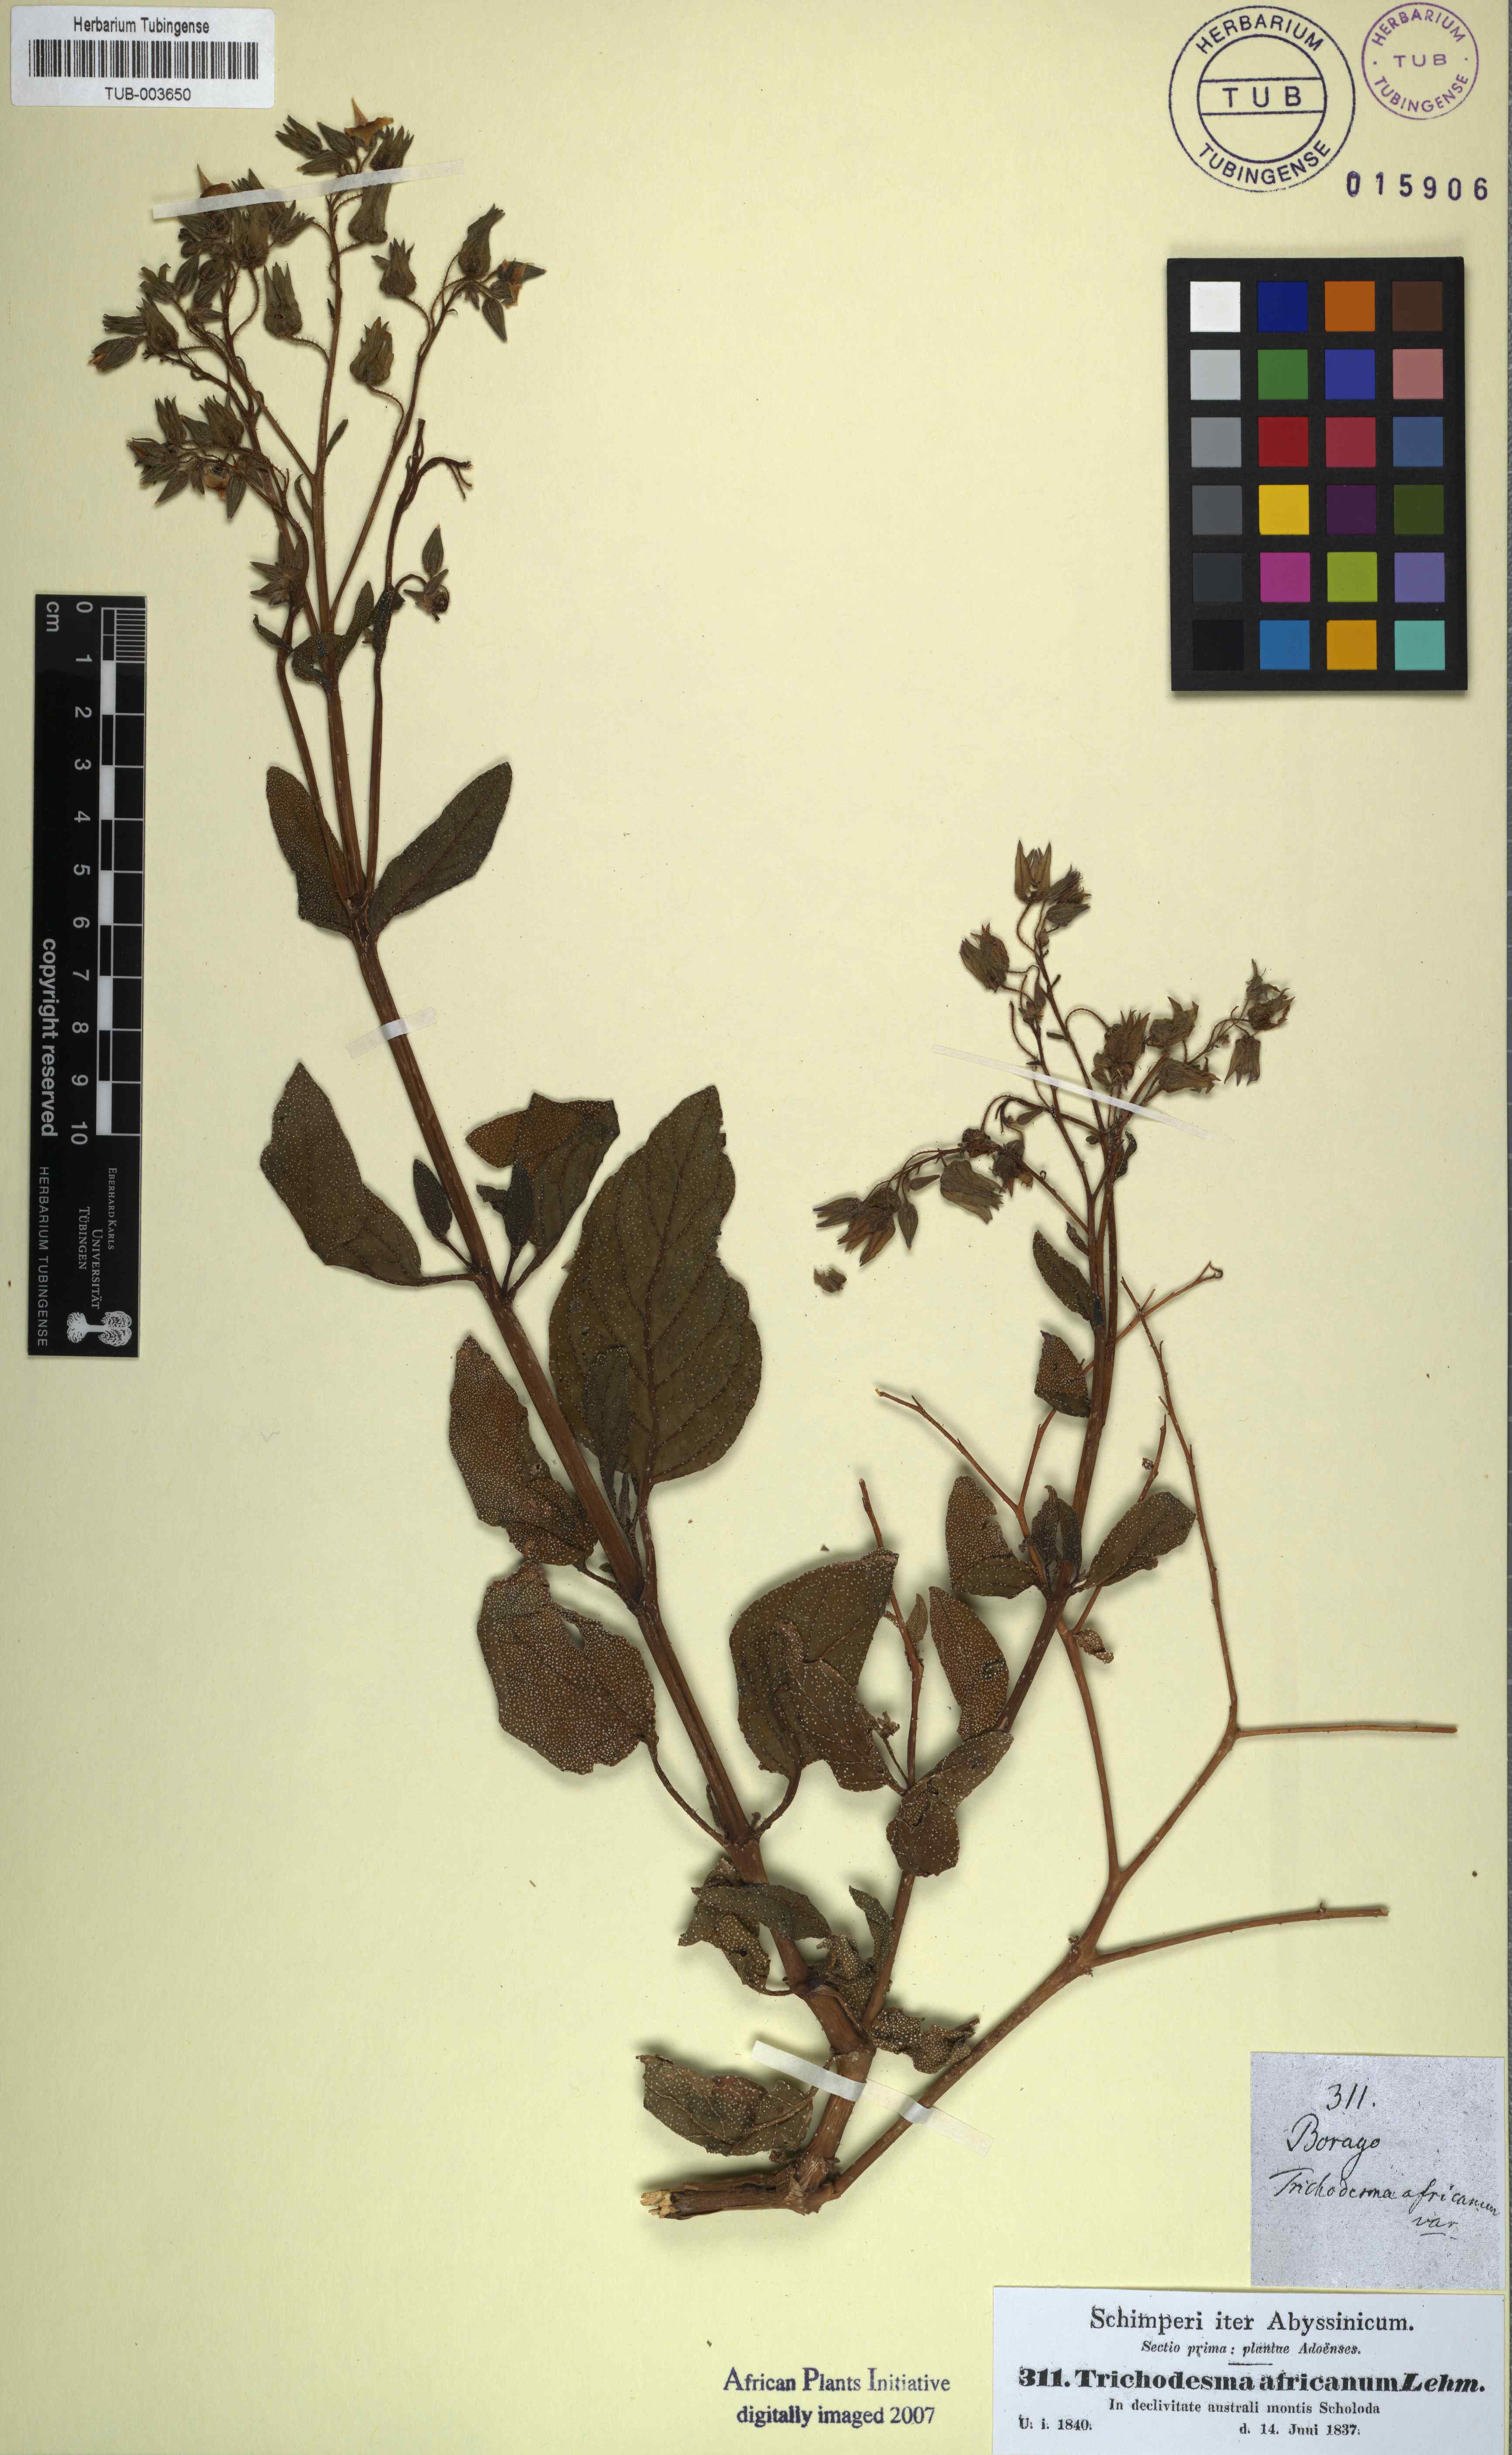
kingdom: Plantae
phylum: Tracheophyta
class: Magnoliopsida
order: Boraginales
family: Boraginaceae
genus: Trichodesma
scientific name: Trichodesma africanum
